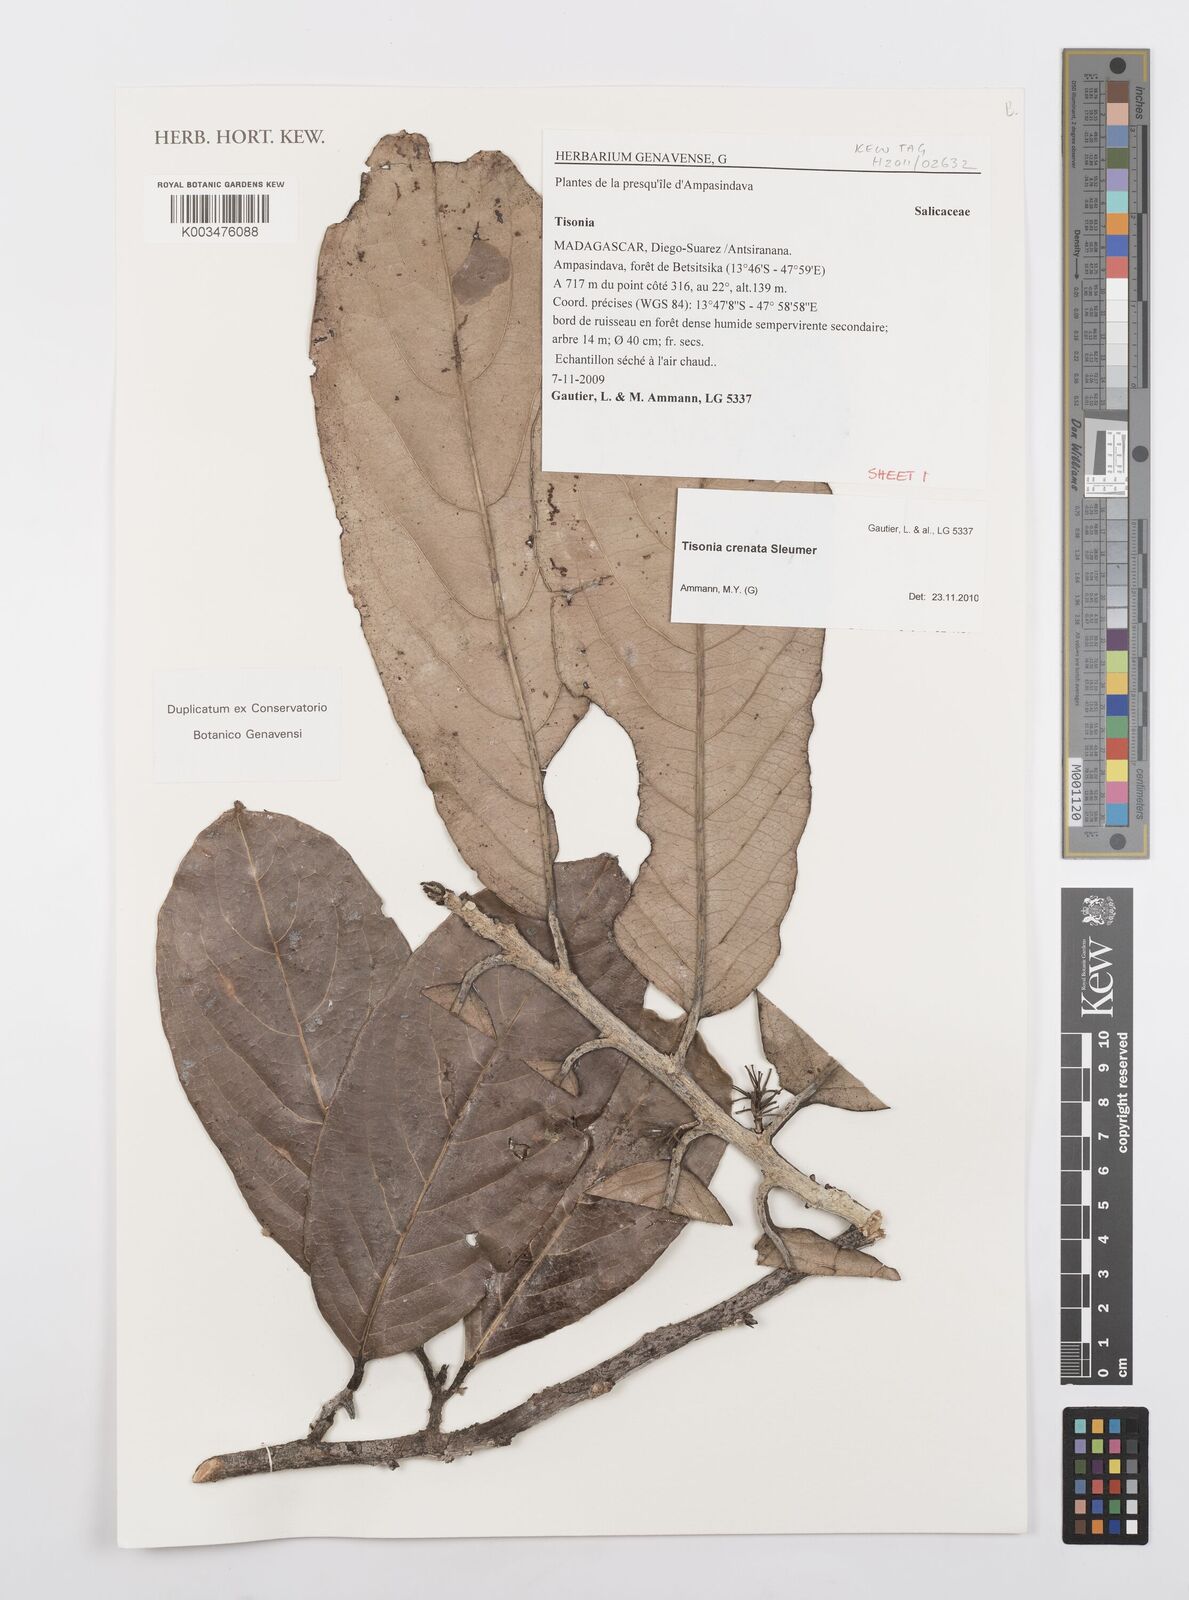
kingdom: Plantae
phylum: Tracheophyta
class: Magnoliopsida
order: Malpighiales
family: Salicaceae
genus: Tisonia
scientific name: Tisonia baronii
